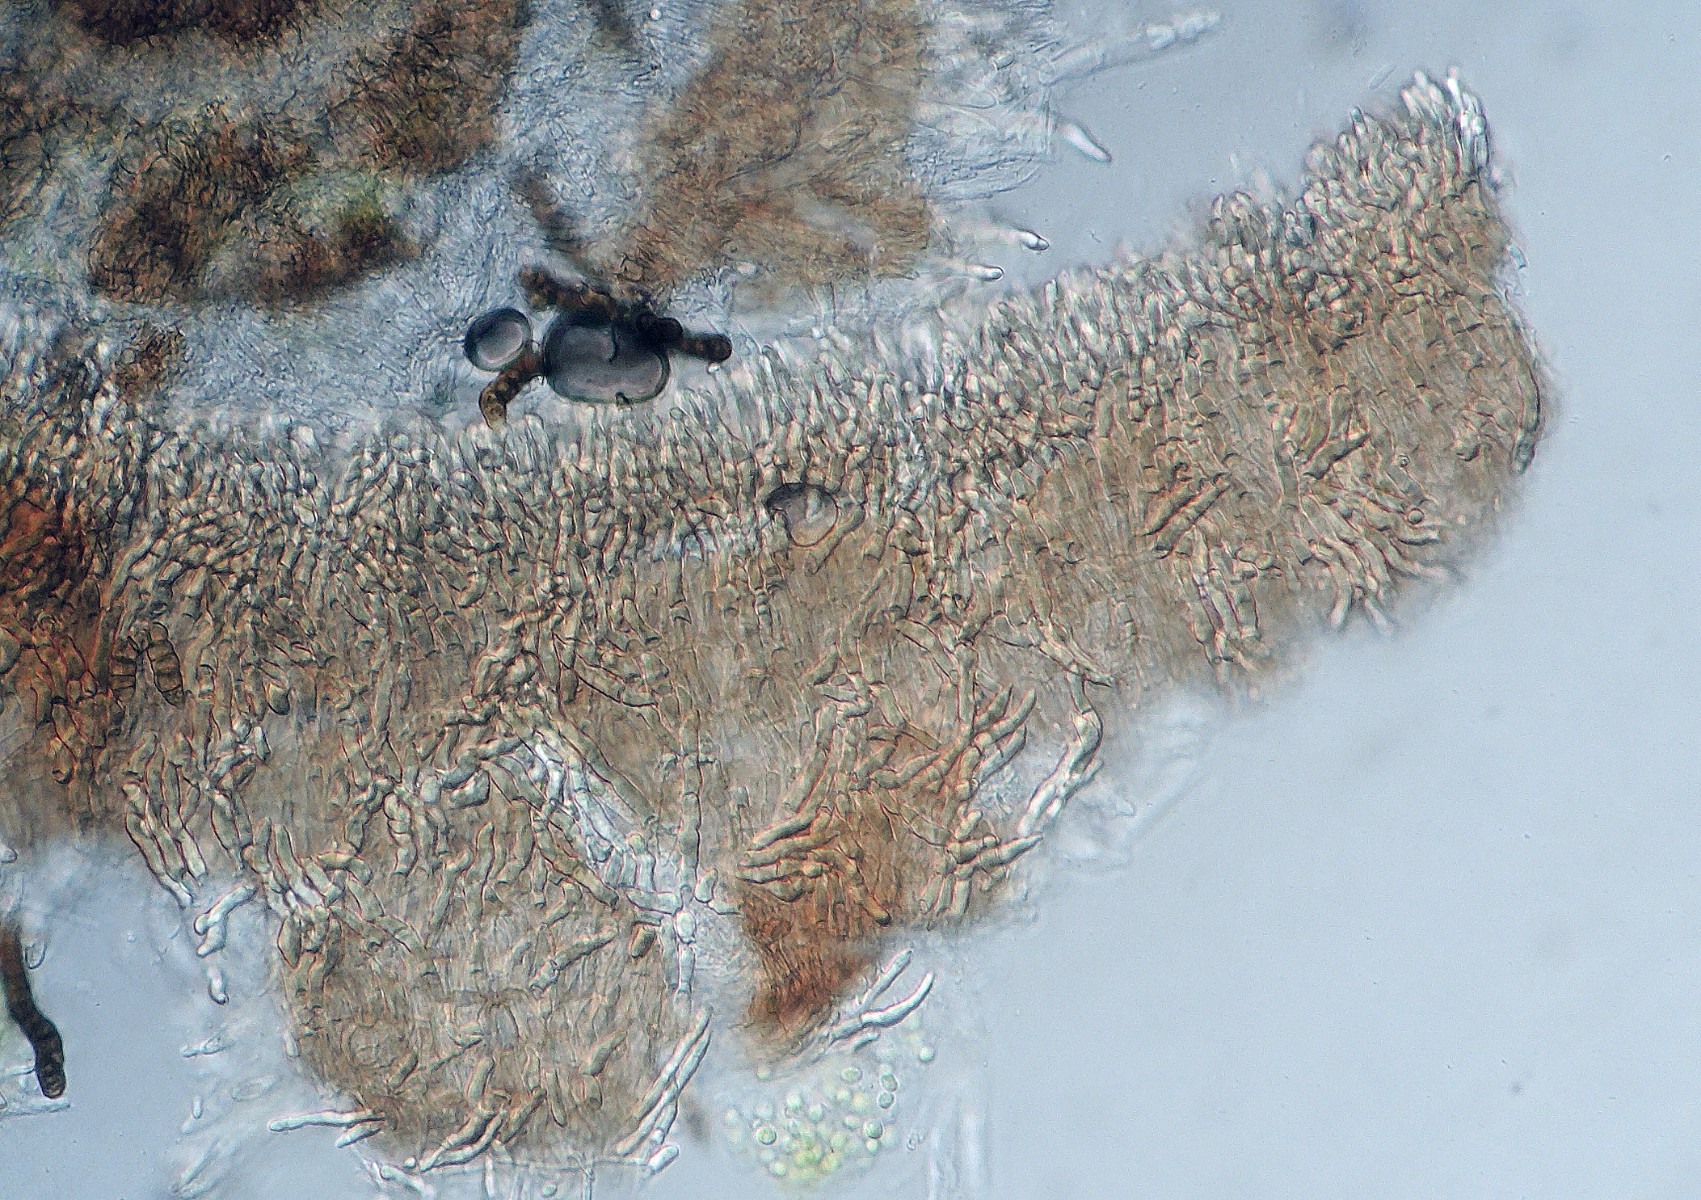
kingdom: Fungi
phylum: Ascomycota
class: Leotiomycetes
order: Helotiales
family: Hyaloscyphaceae
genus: Hyalopeziza
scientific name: Hyalopeziza millepunctata
